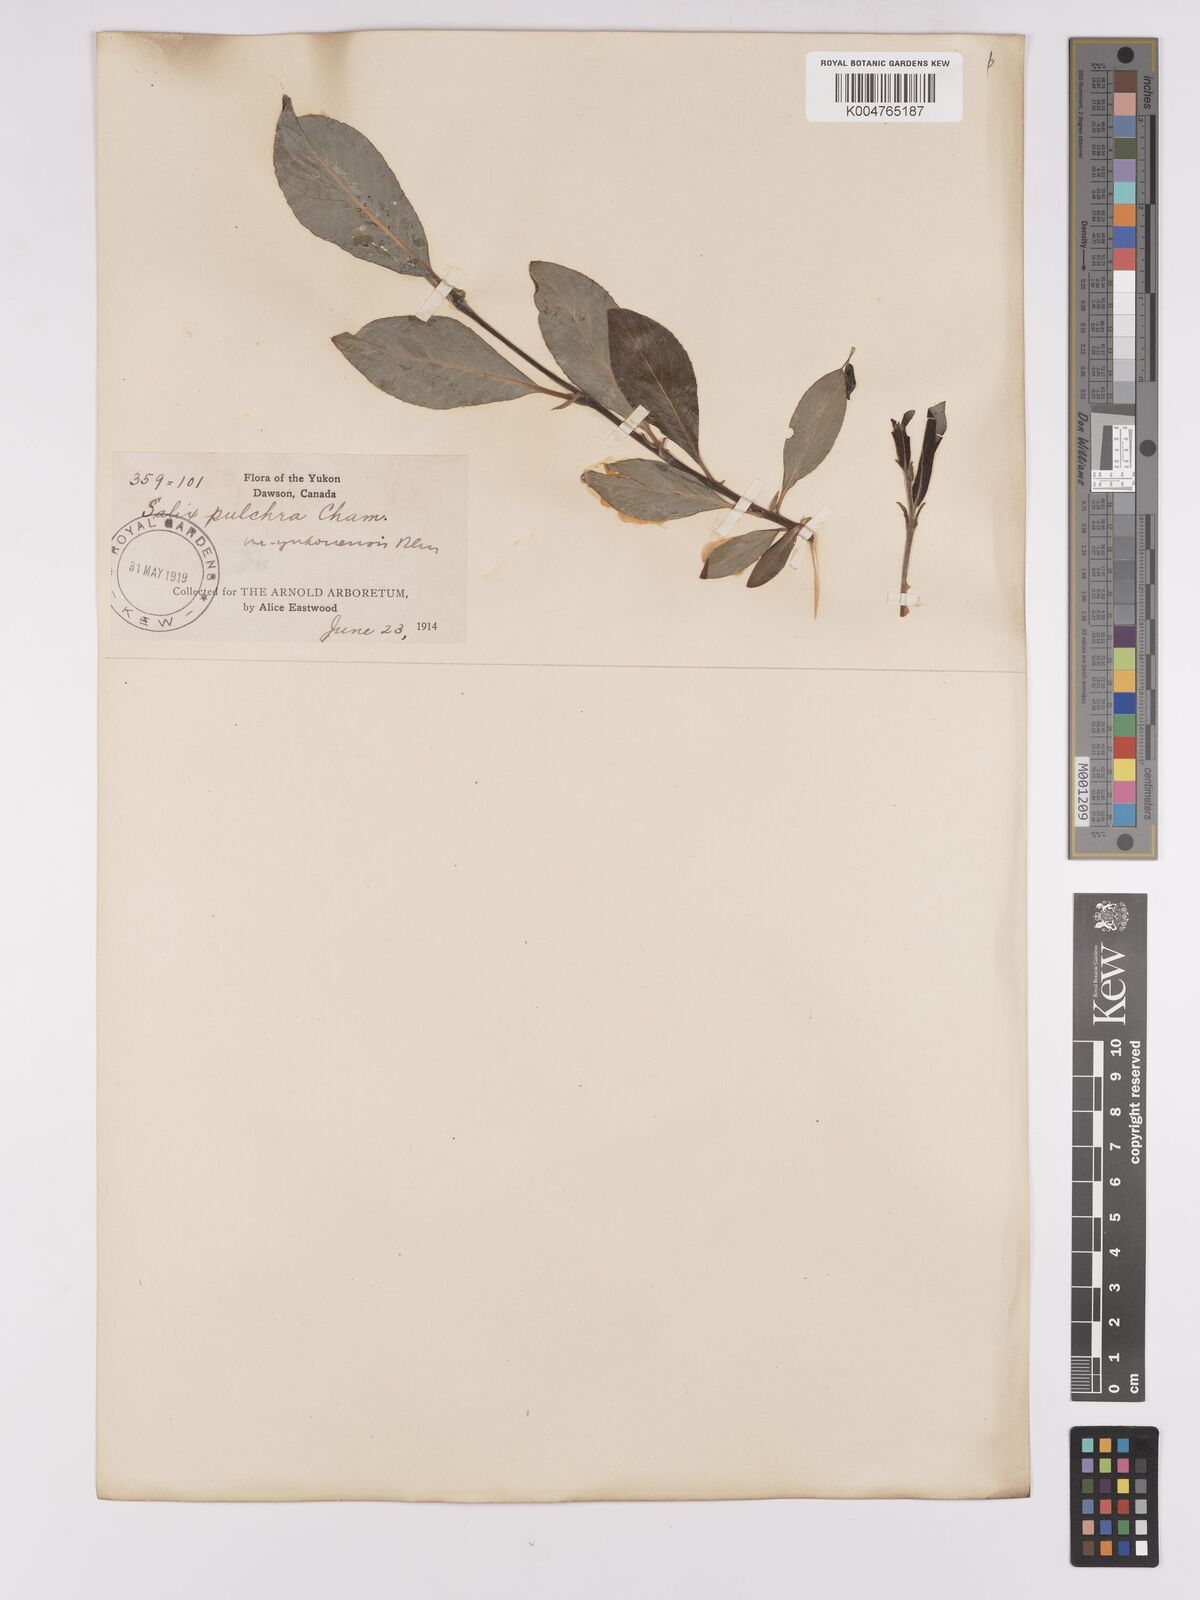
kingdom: Plantae
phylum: Tracheophyta
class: Magnoliopsida
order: Malpighiales
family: Salicaceae
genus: Salix
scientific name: Salix pulchra
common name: Diamond-leaved willow
